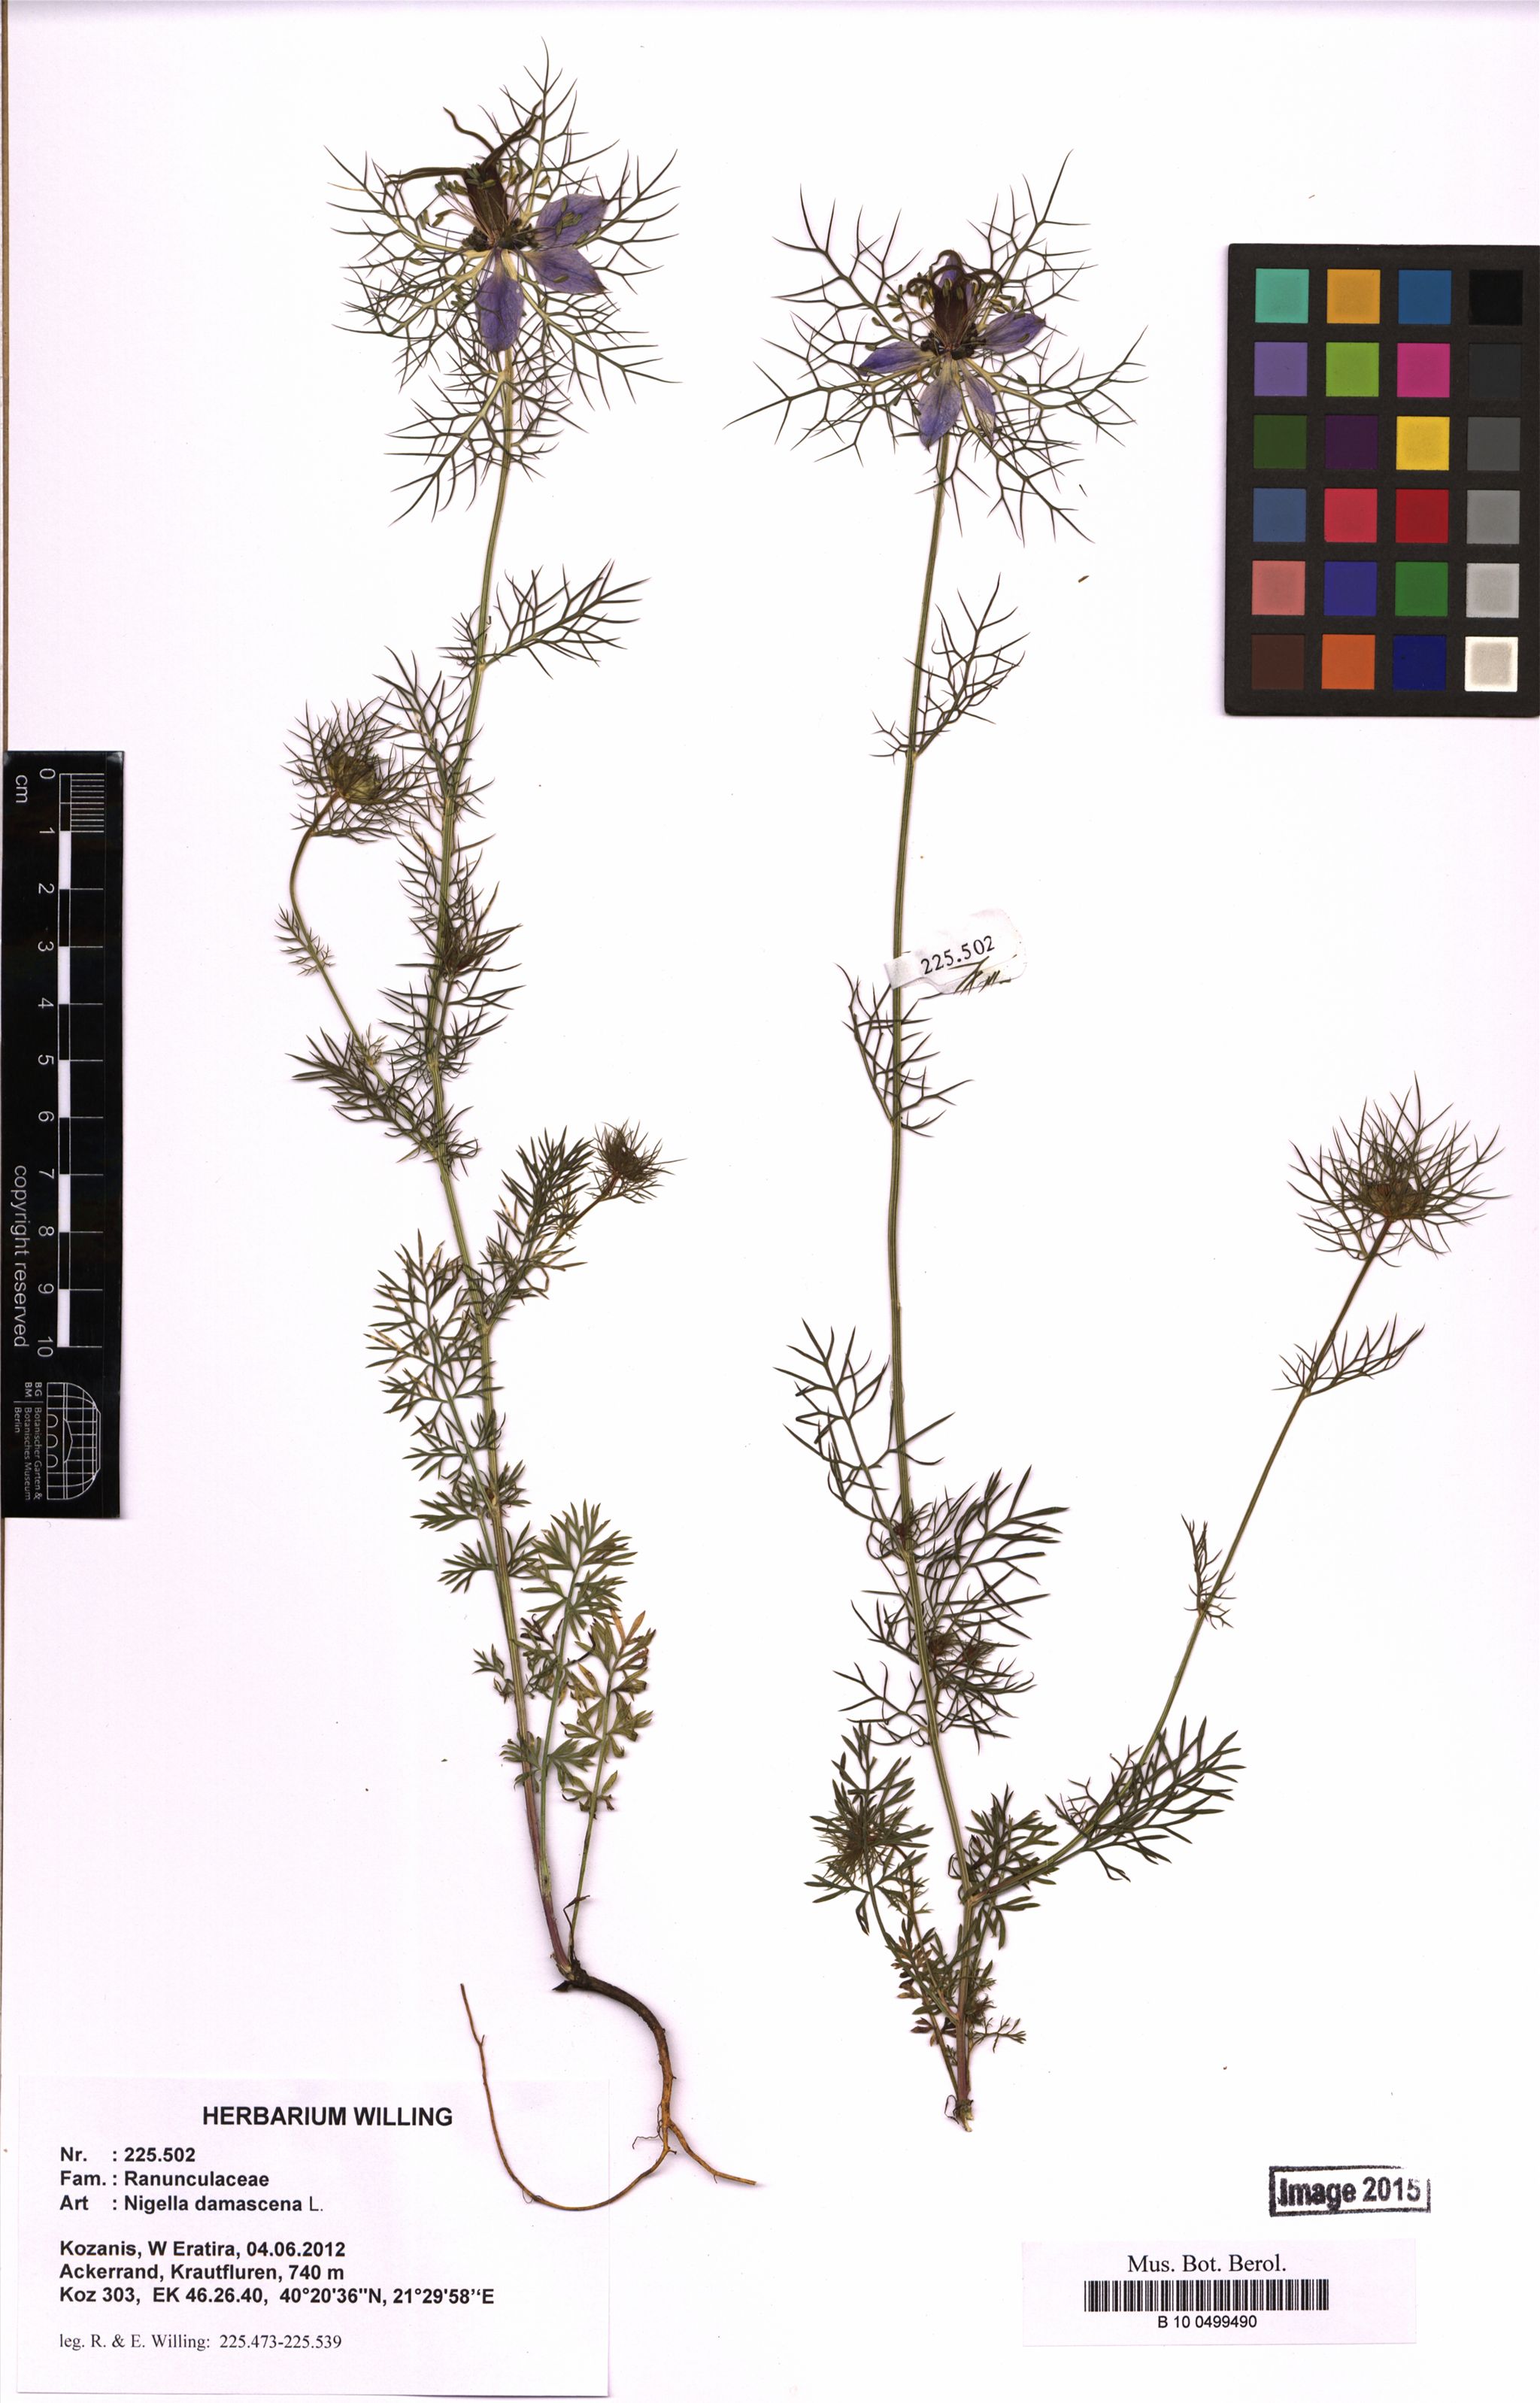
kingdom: Plantae
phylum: Tracheophyta
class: Magnoliopsida
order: Ranunculales
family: Ranunculaceae
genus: Nigella
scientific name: Nigella damascena
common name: Love-in-a-mist
